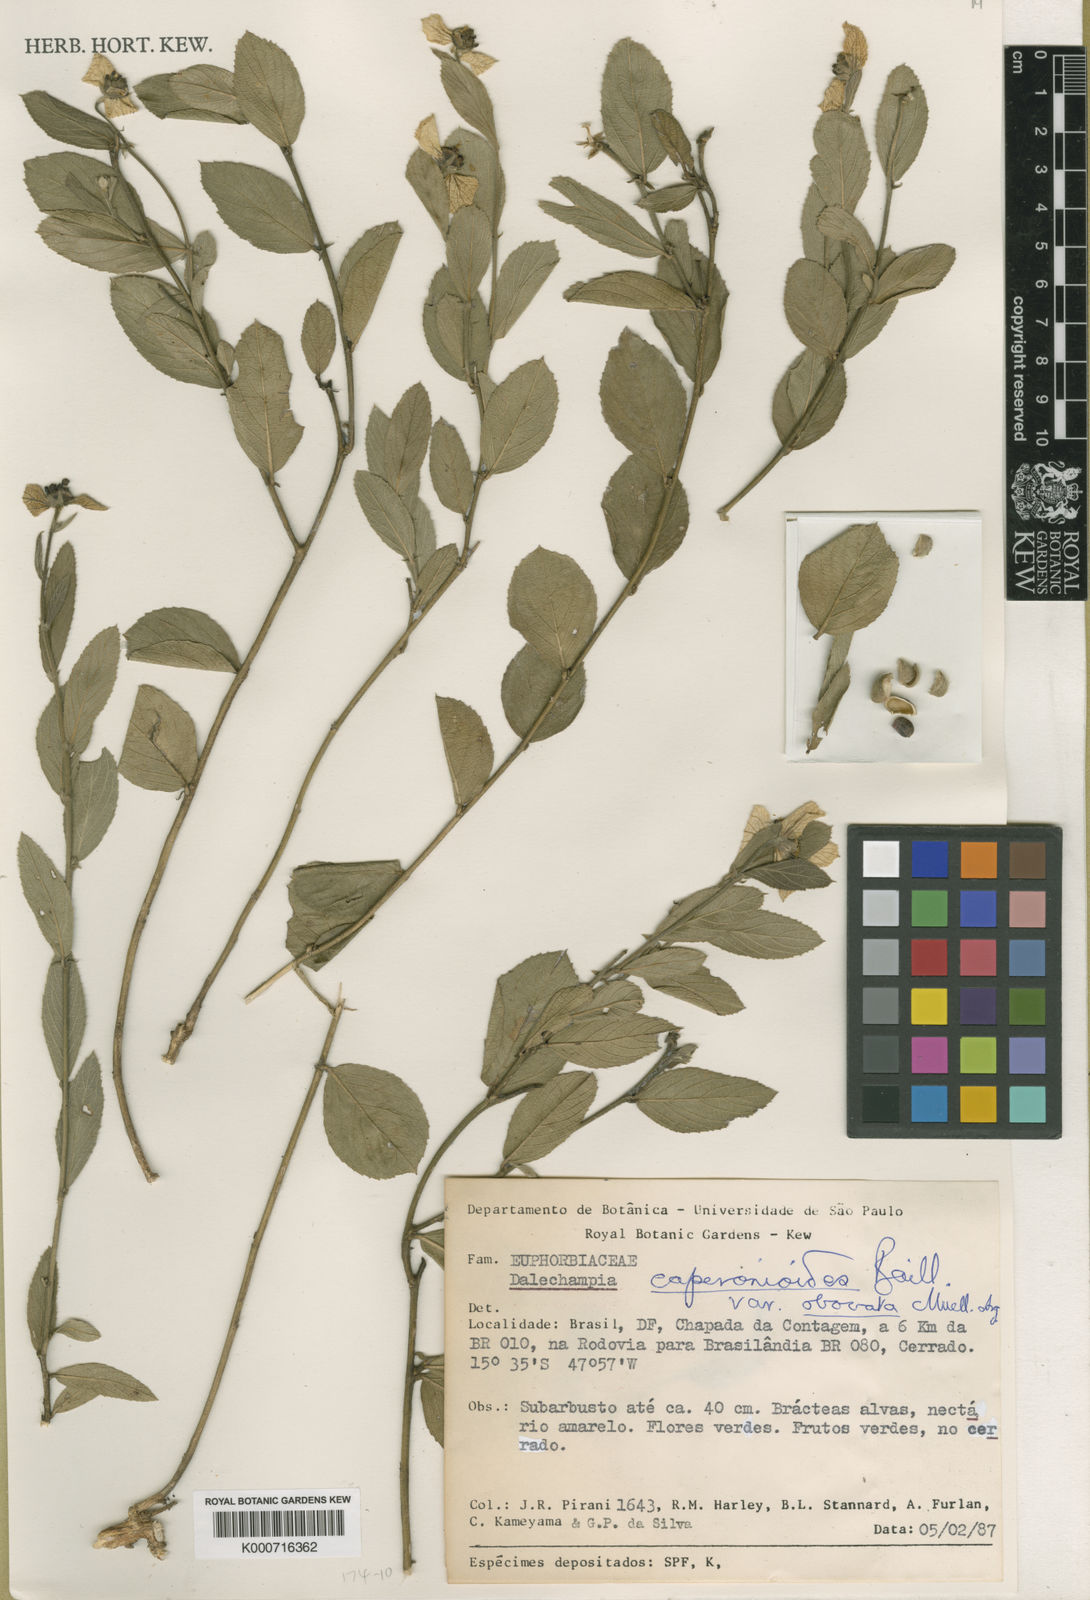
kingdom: Plantae
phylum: Tracheophyta
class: Magnoliopsida
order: Malpighiales
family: Euphorbiaceae
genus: Dalechampia
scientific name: Dalechampia caperonioides
